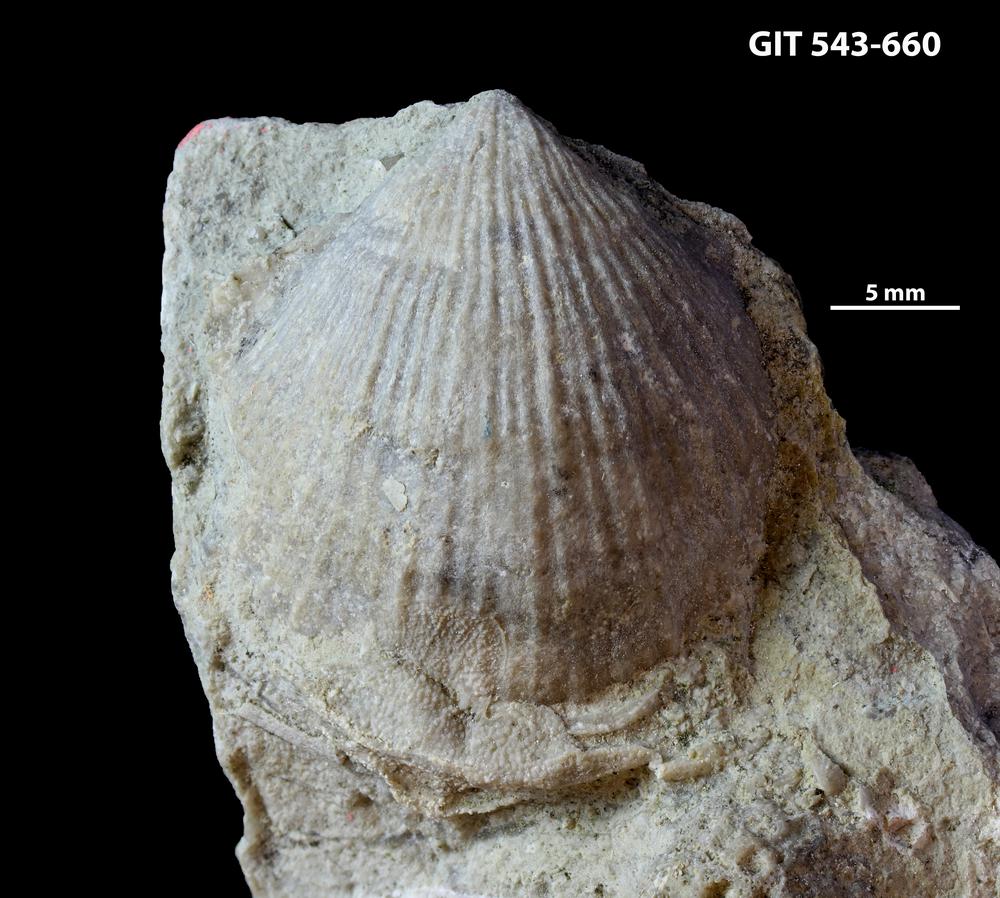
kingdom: Animalia
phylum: Brachiopoda
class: Rhynchonellata
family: Clitambonitidae
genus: Vellamo
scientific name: Vellamo Orthis verneuili
